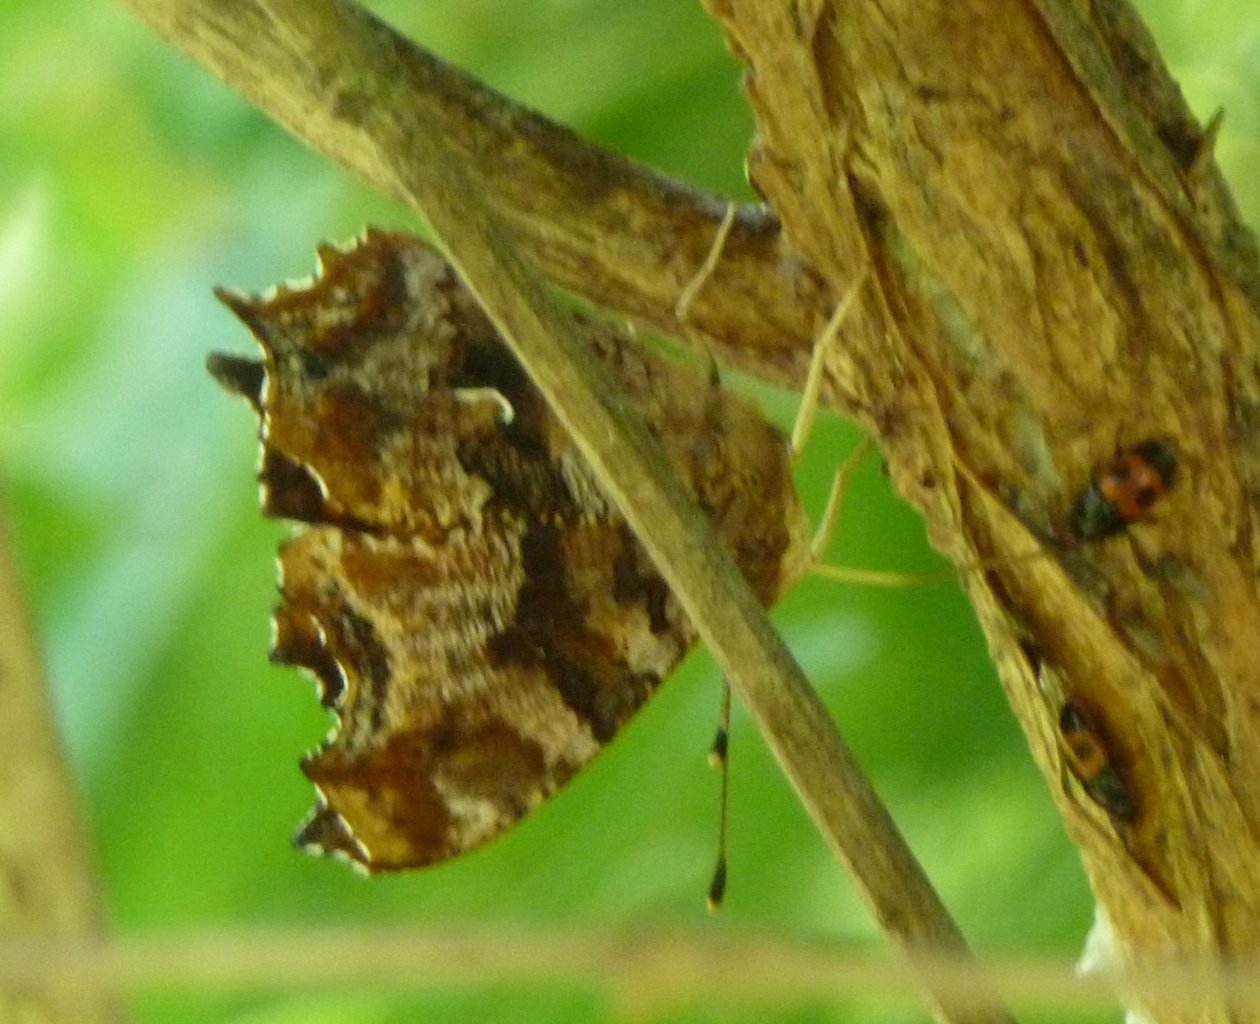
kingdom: Animalia
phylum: Arthropoda
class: Insecta
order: Lepidoptera
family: Nymphalidae
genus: Polygonia
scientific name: Polygonia comma
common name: Eastern Comma
